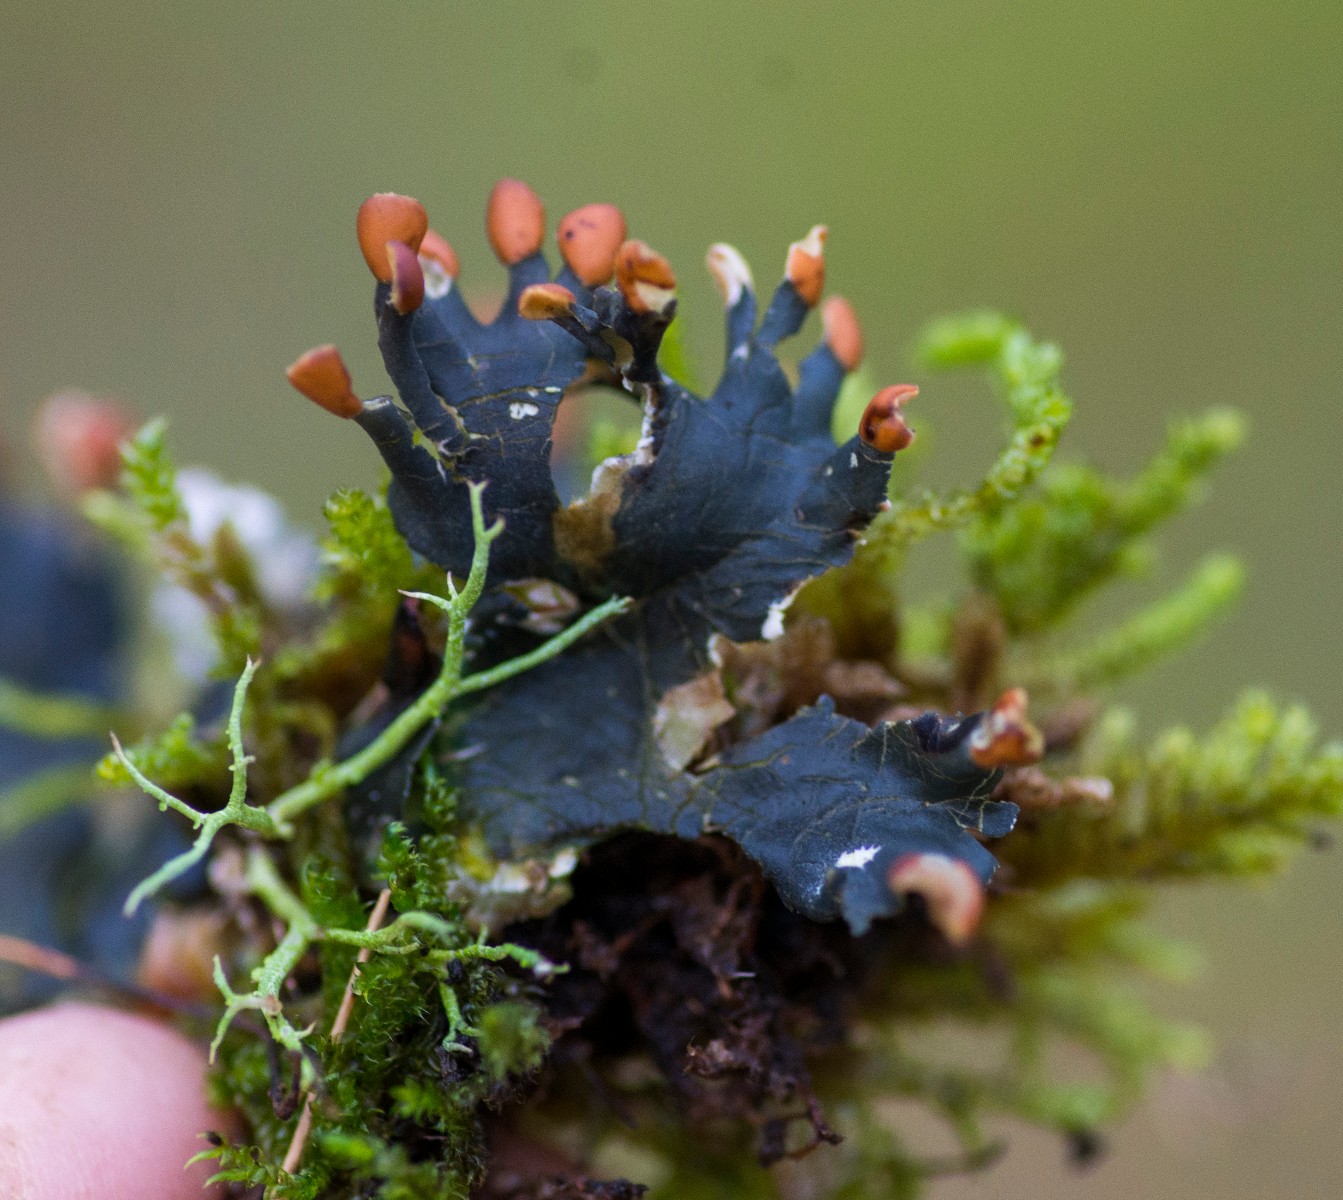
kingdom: Fungi
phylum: Ascomycota
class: Lecanoromycetes
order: Peltigerales
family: Peltigeraceae
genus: Peltigera
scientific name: Peltigera hymenina
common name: hinde-skjoldlav
